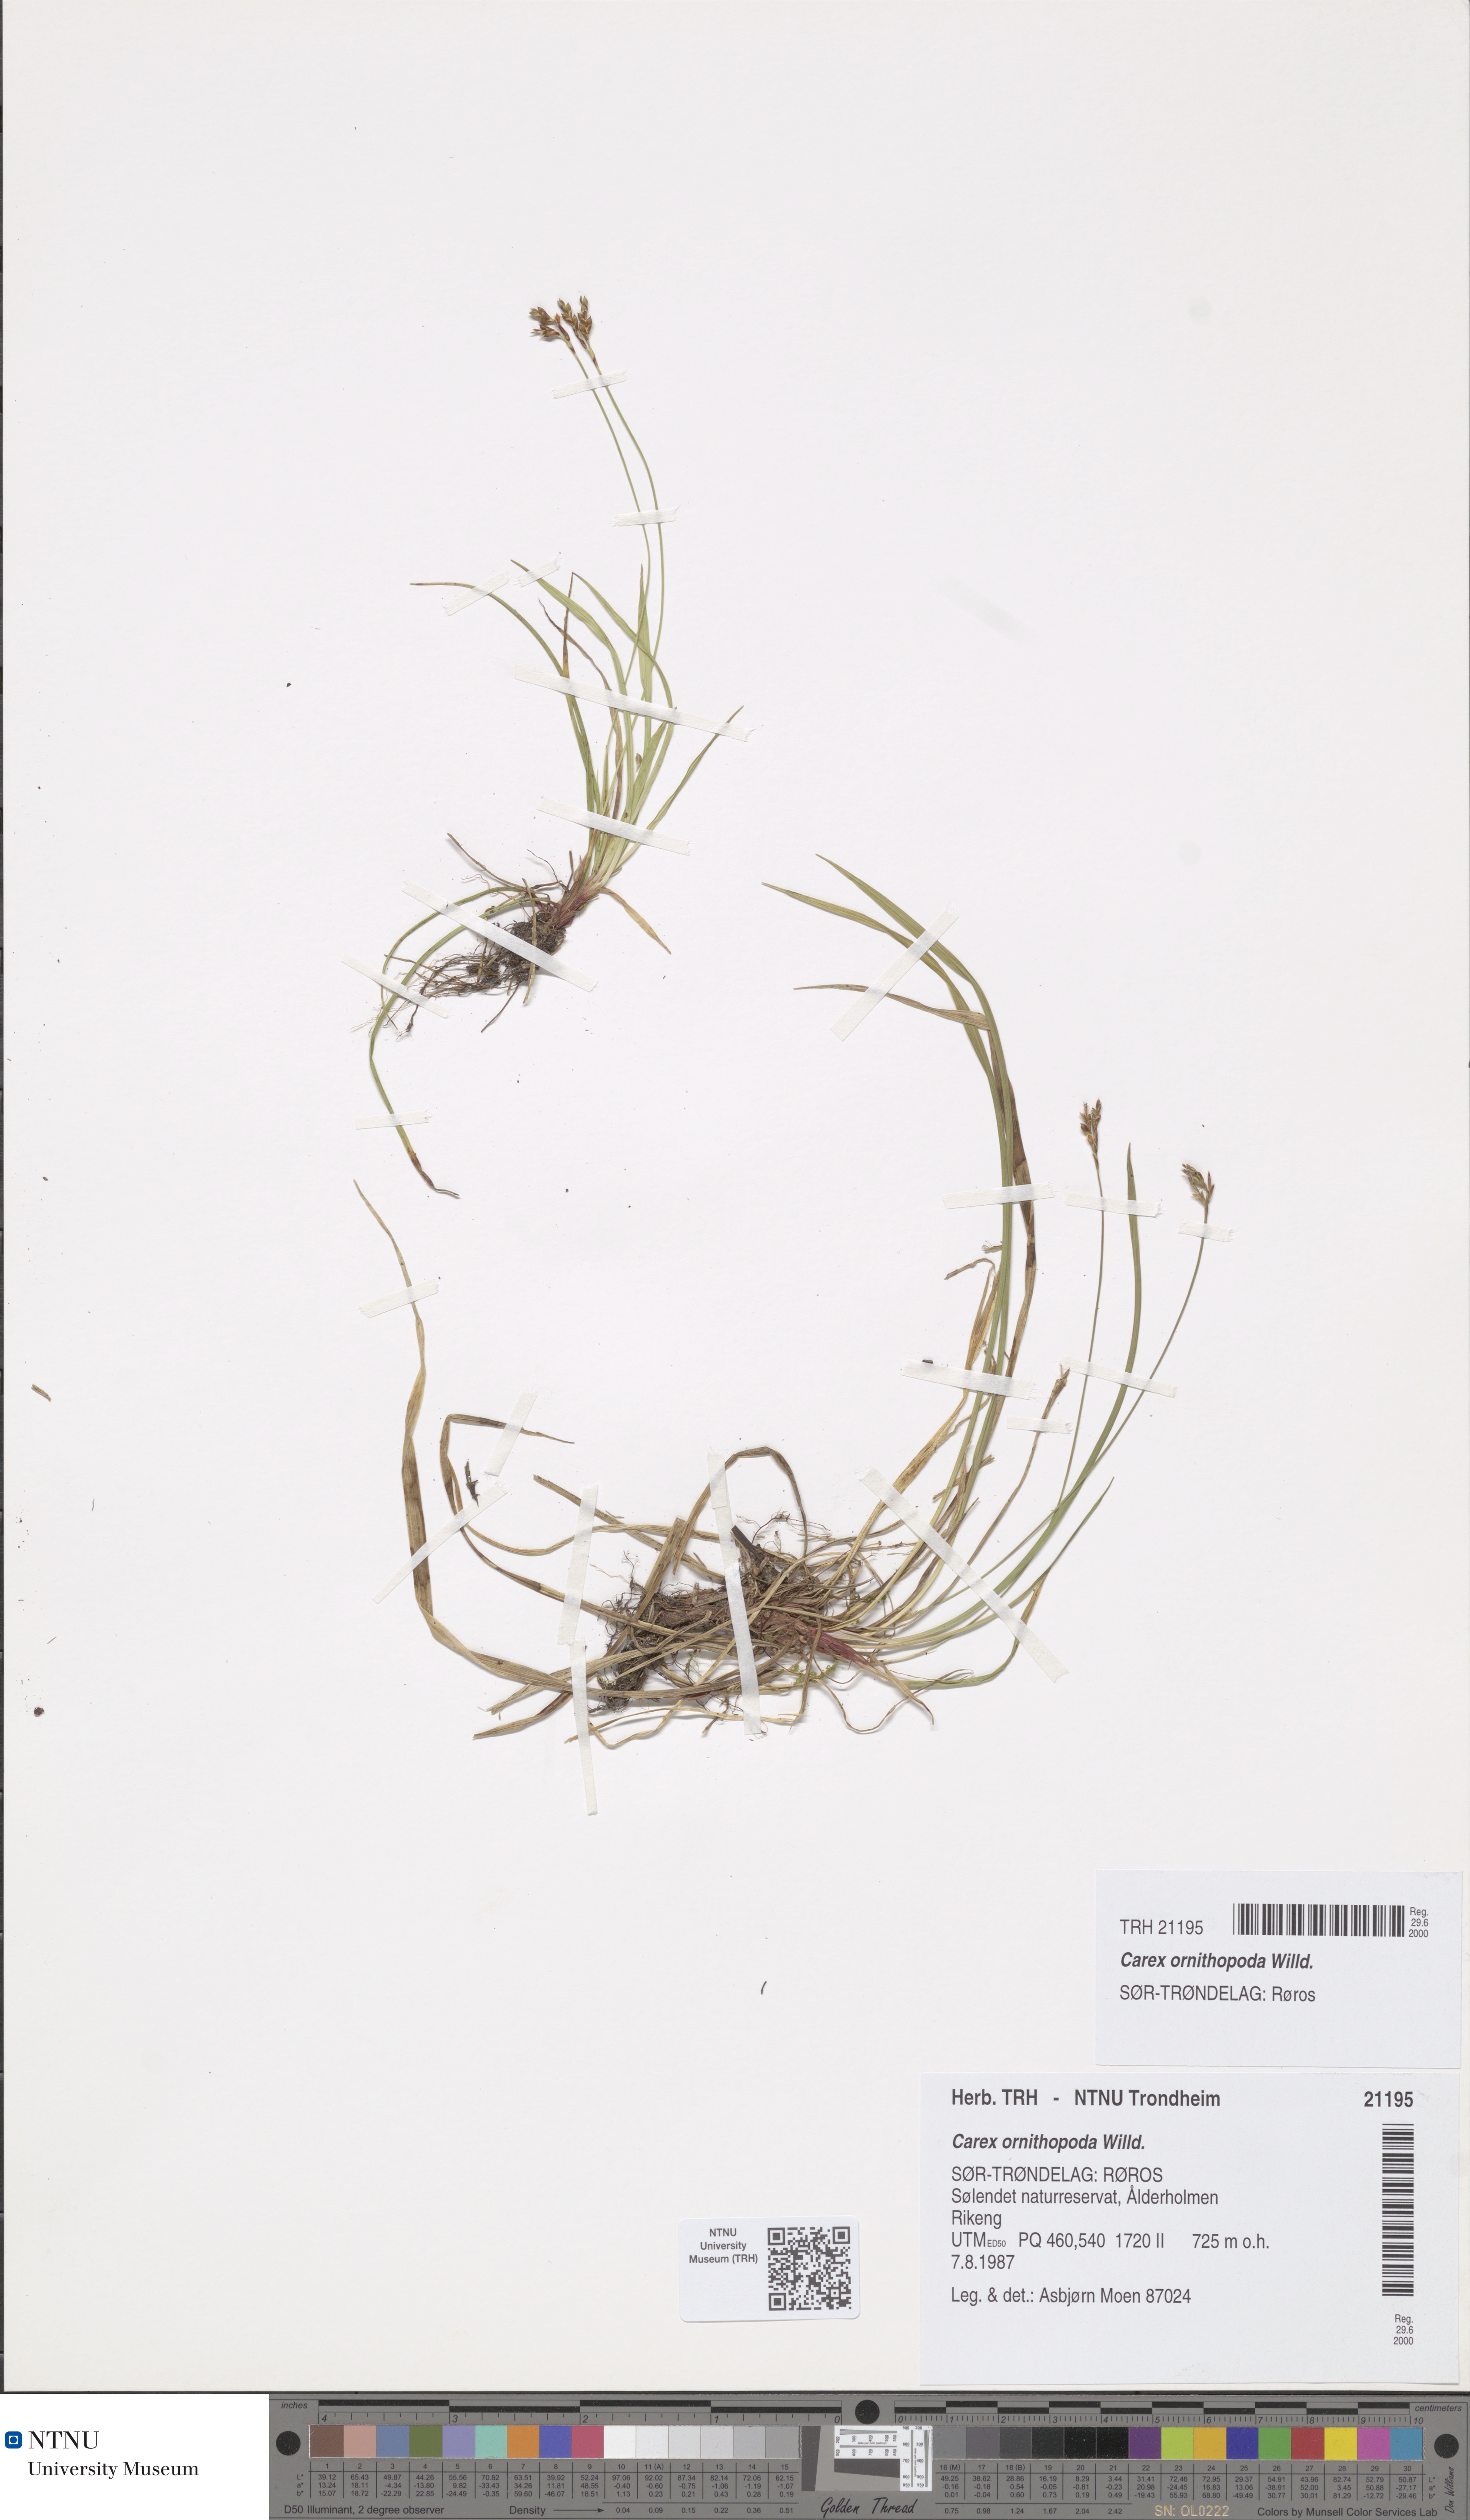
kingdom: Plantae
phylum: Tracheophyta
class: Liliopsida
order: Poales
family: Cyperaceae
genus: Carex
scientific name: Carex ornithopoda
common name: Bird's-foot sedge
